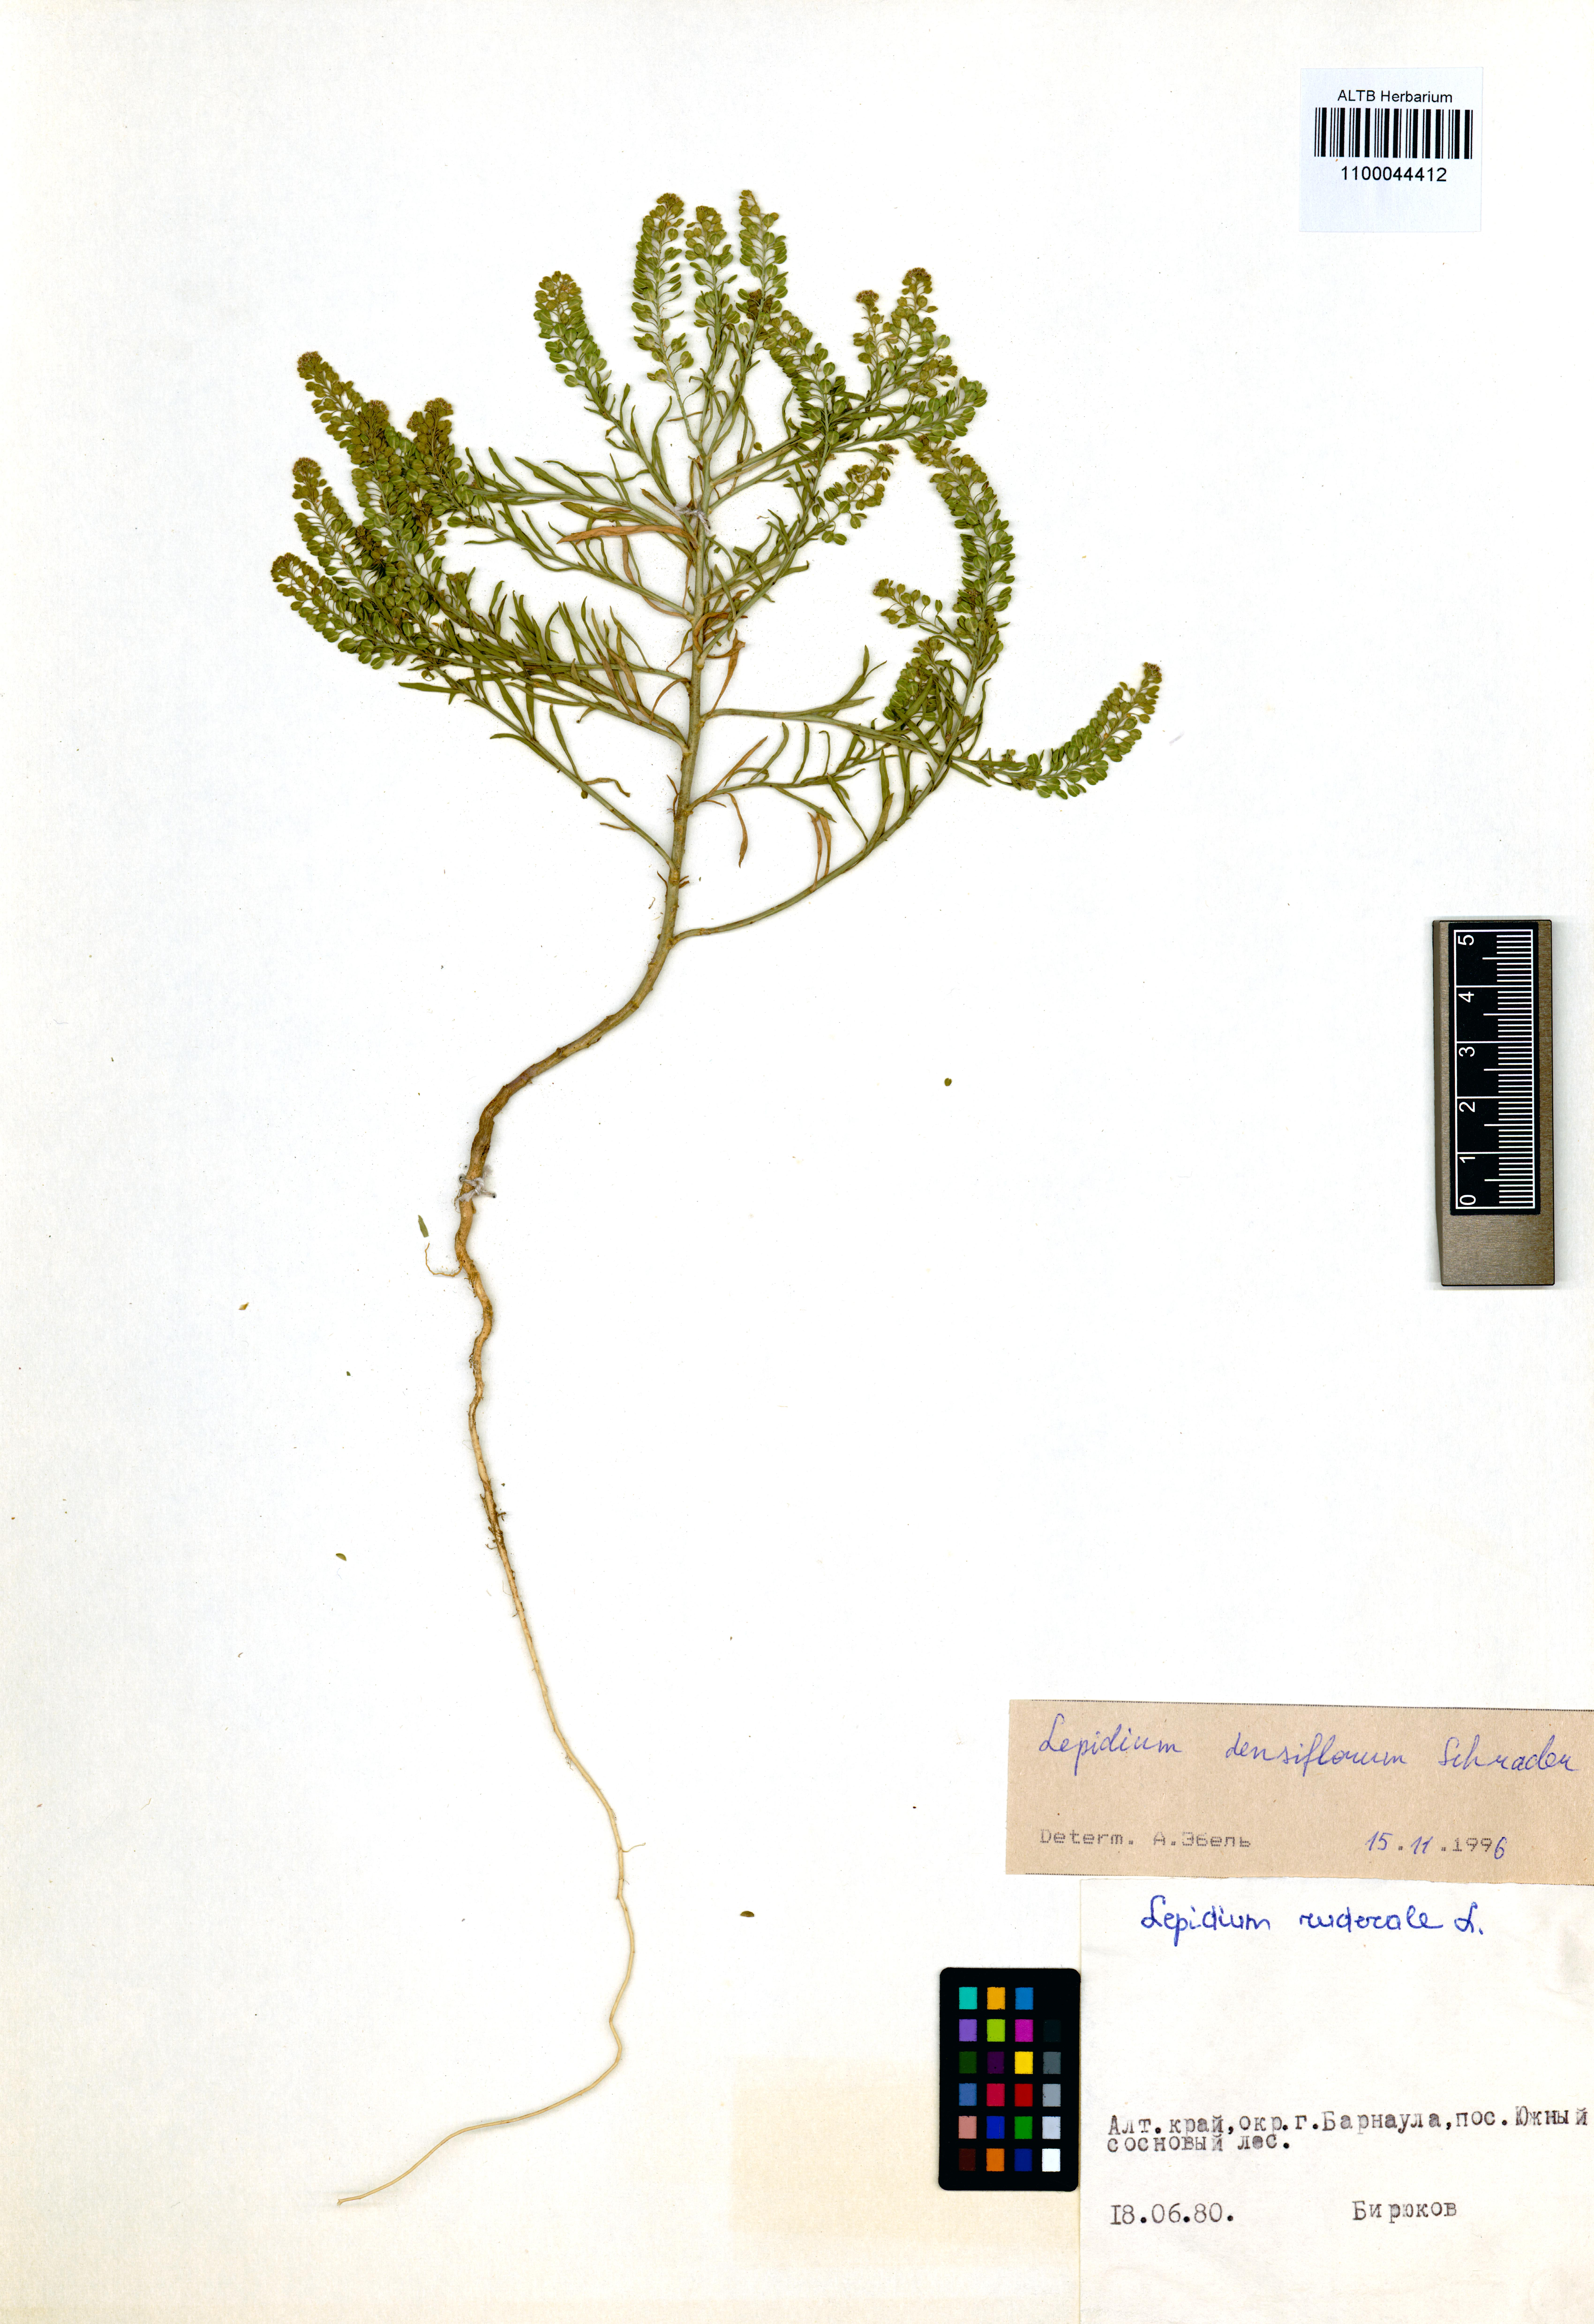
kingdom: Plantae
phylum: Tracheophyta
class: Magnoliopsida
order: Brassicales
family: Brassicaceae
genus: Lepidium
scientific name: Lepidium densiflorum
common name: Miner's pepperwort
